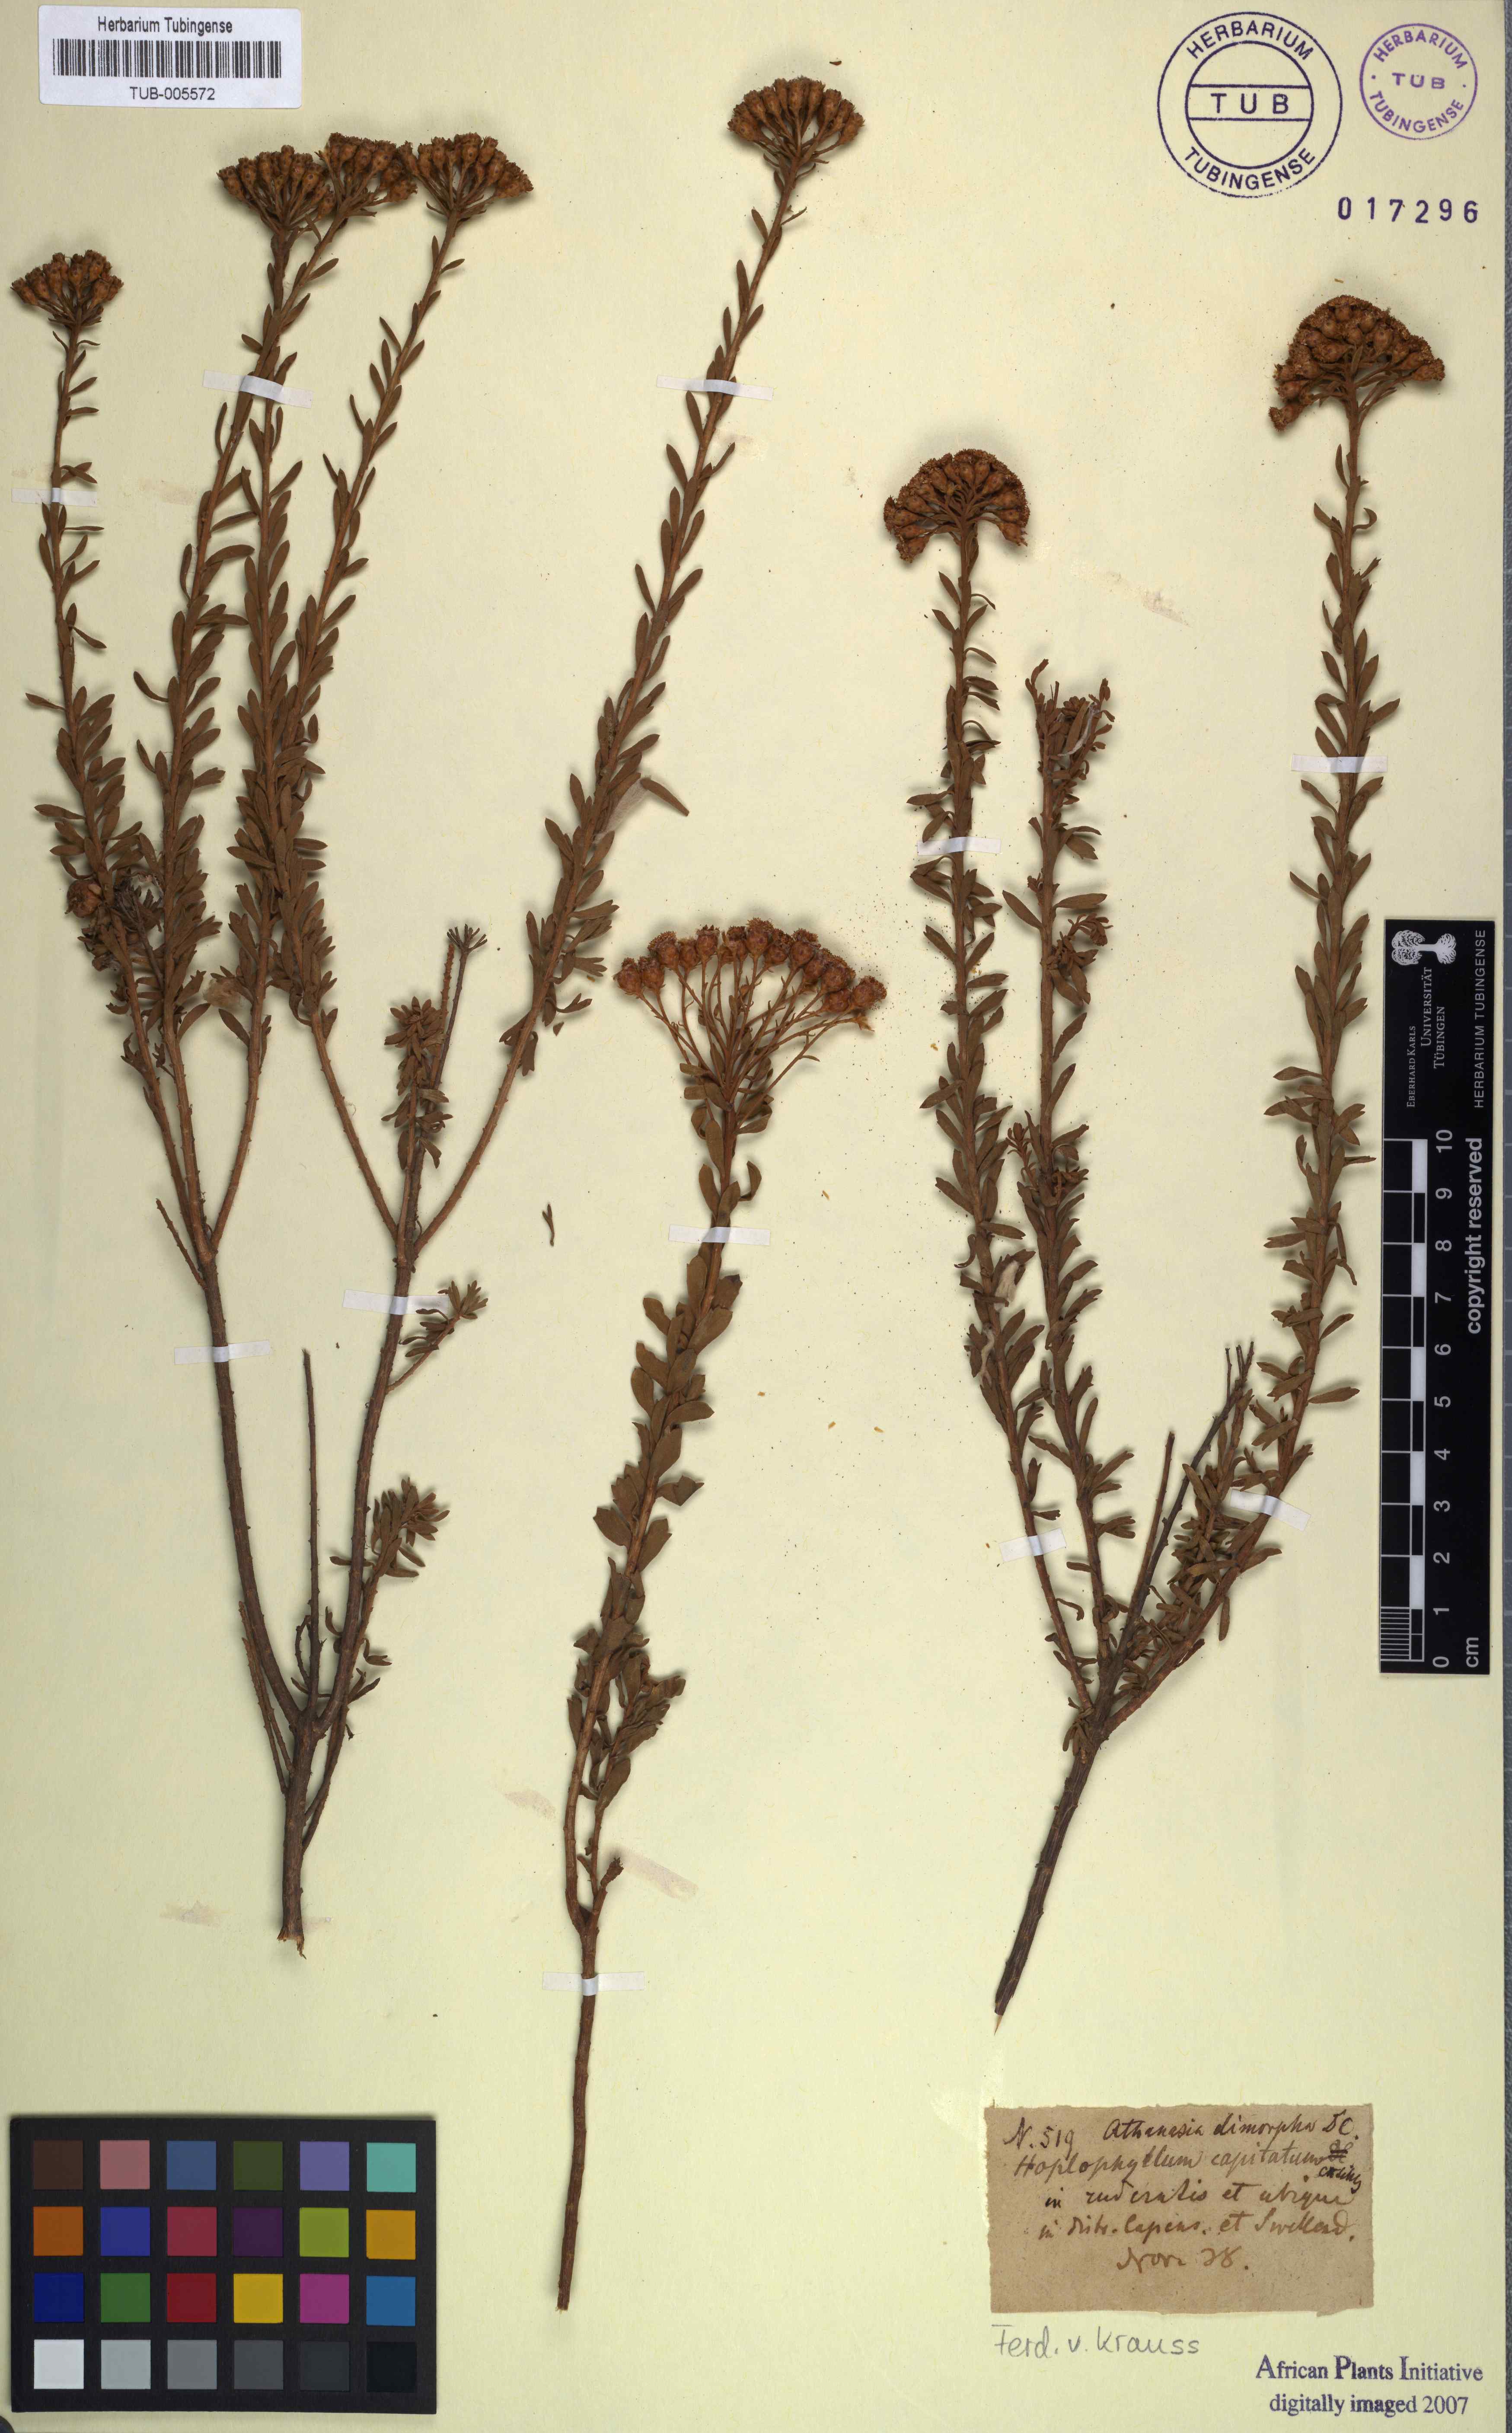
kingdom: Plantae
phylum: Tracheophyta
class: Magnoliopsida
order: Asterales
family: Asteraceae
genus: Athanasia
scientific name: Athanasia quinquedentata
